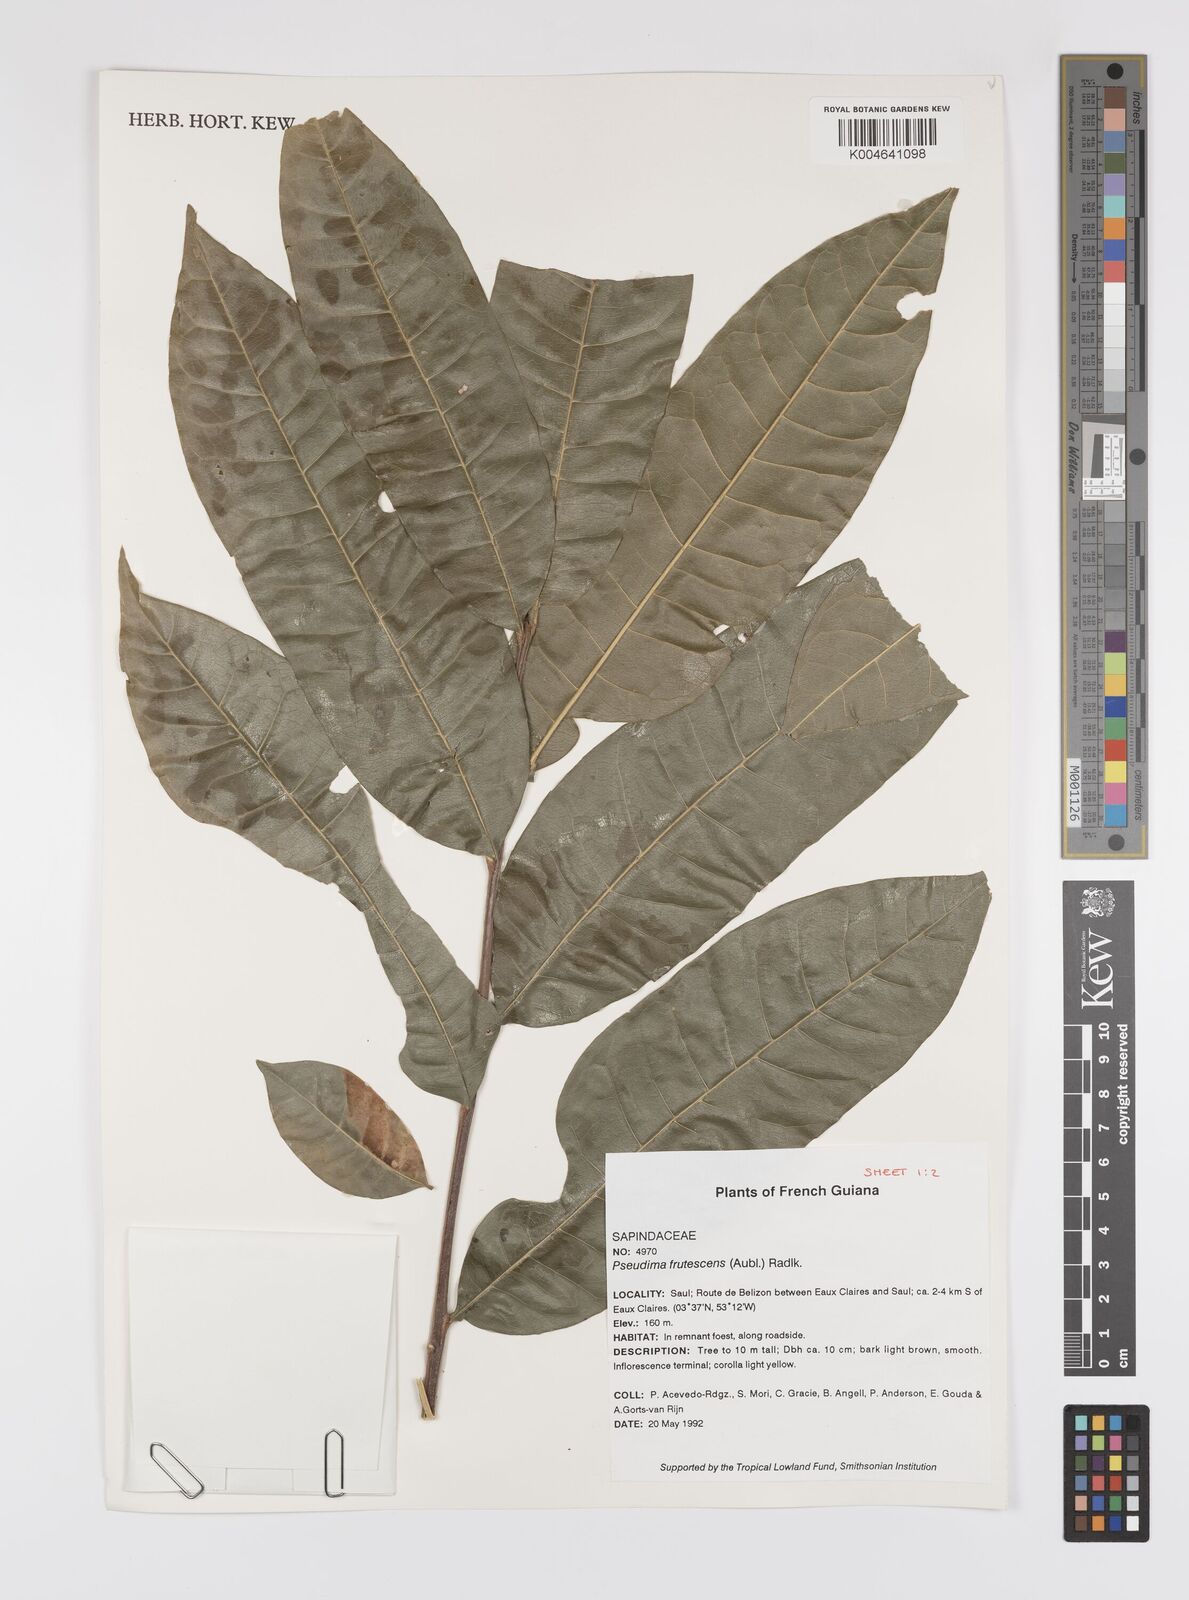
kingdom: Plantae
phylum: Tracheophyta
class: Magnoliopsida
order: Sapindales
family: Sapindaceae
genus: Pseudima
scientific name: Pseudima frutescens
